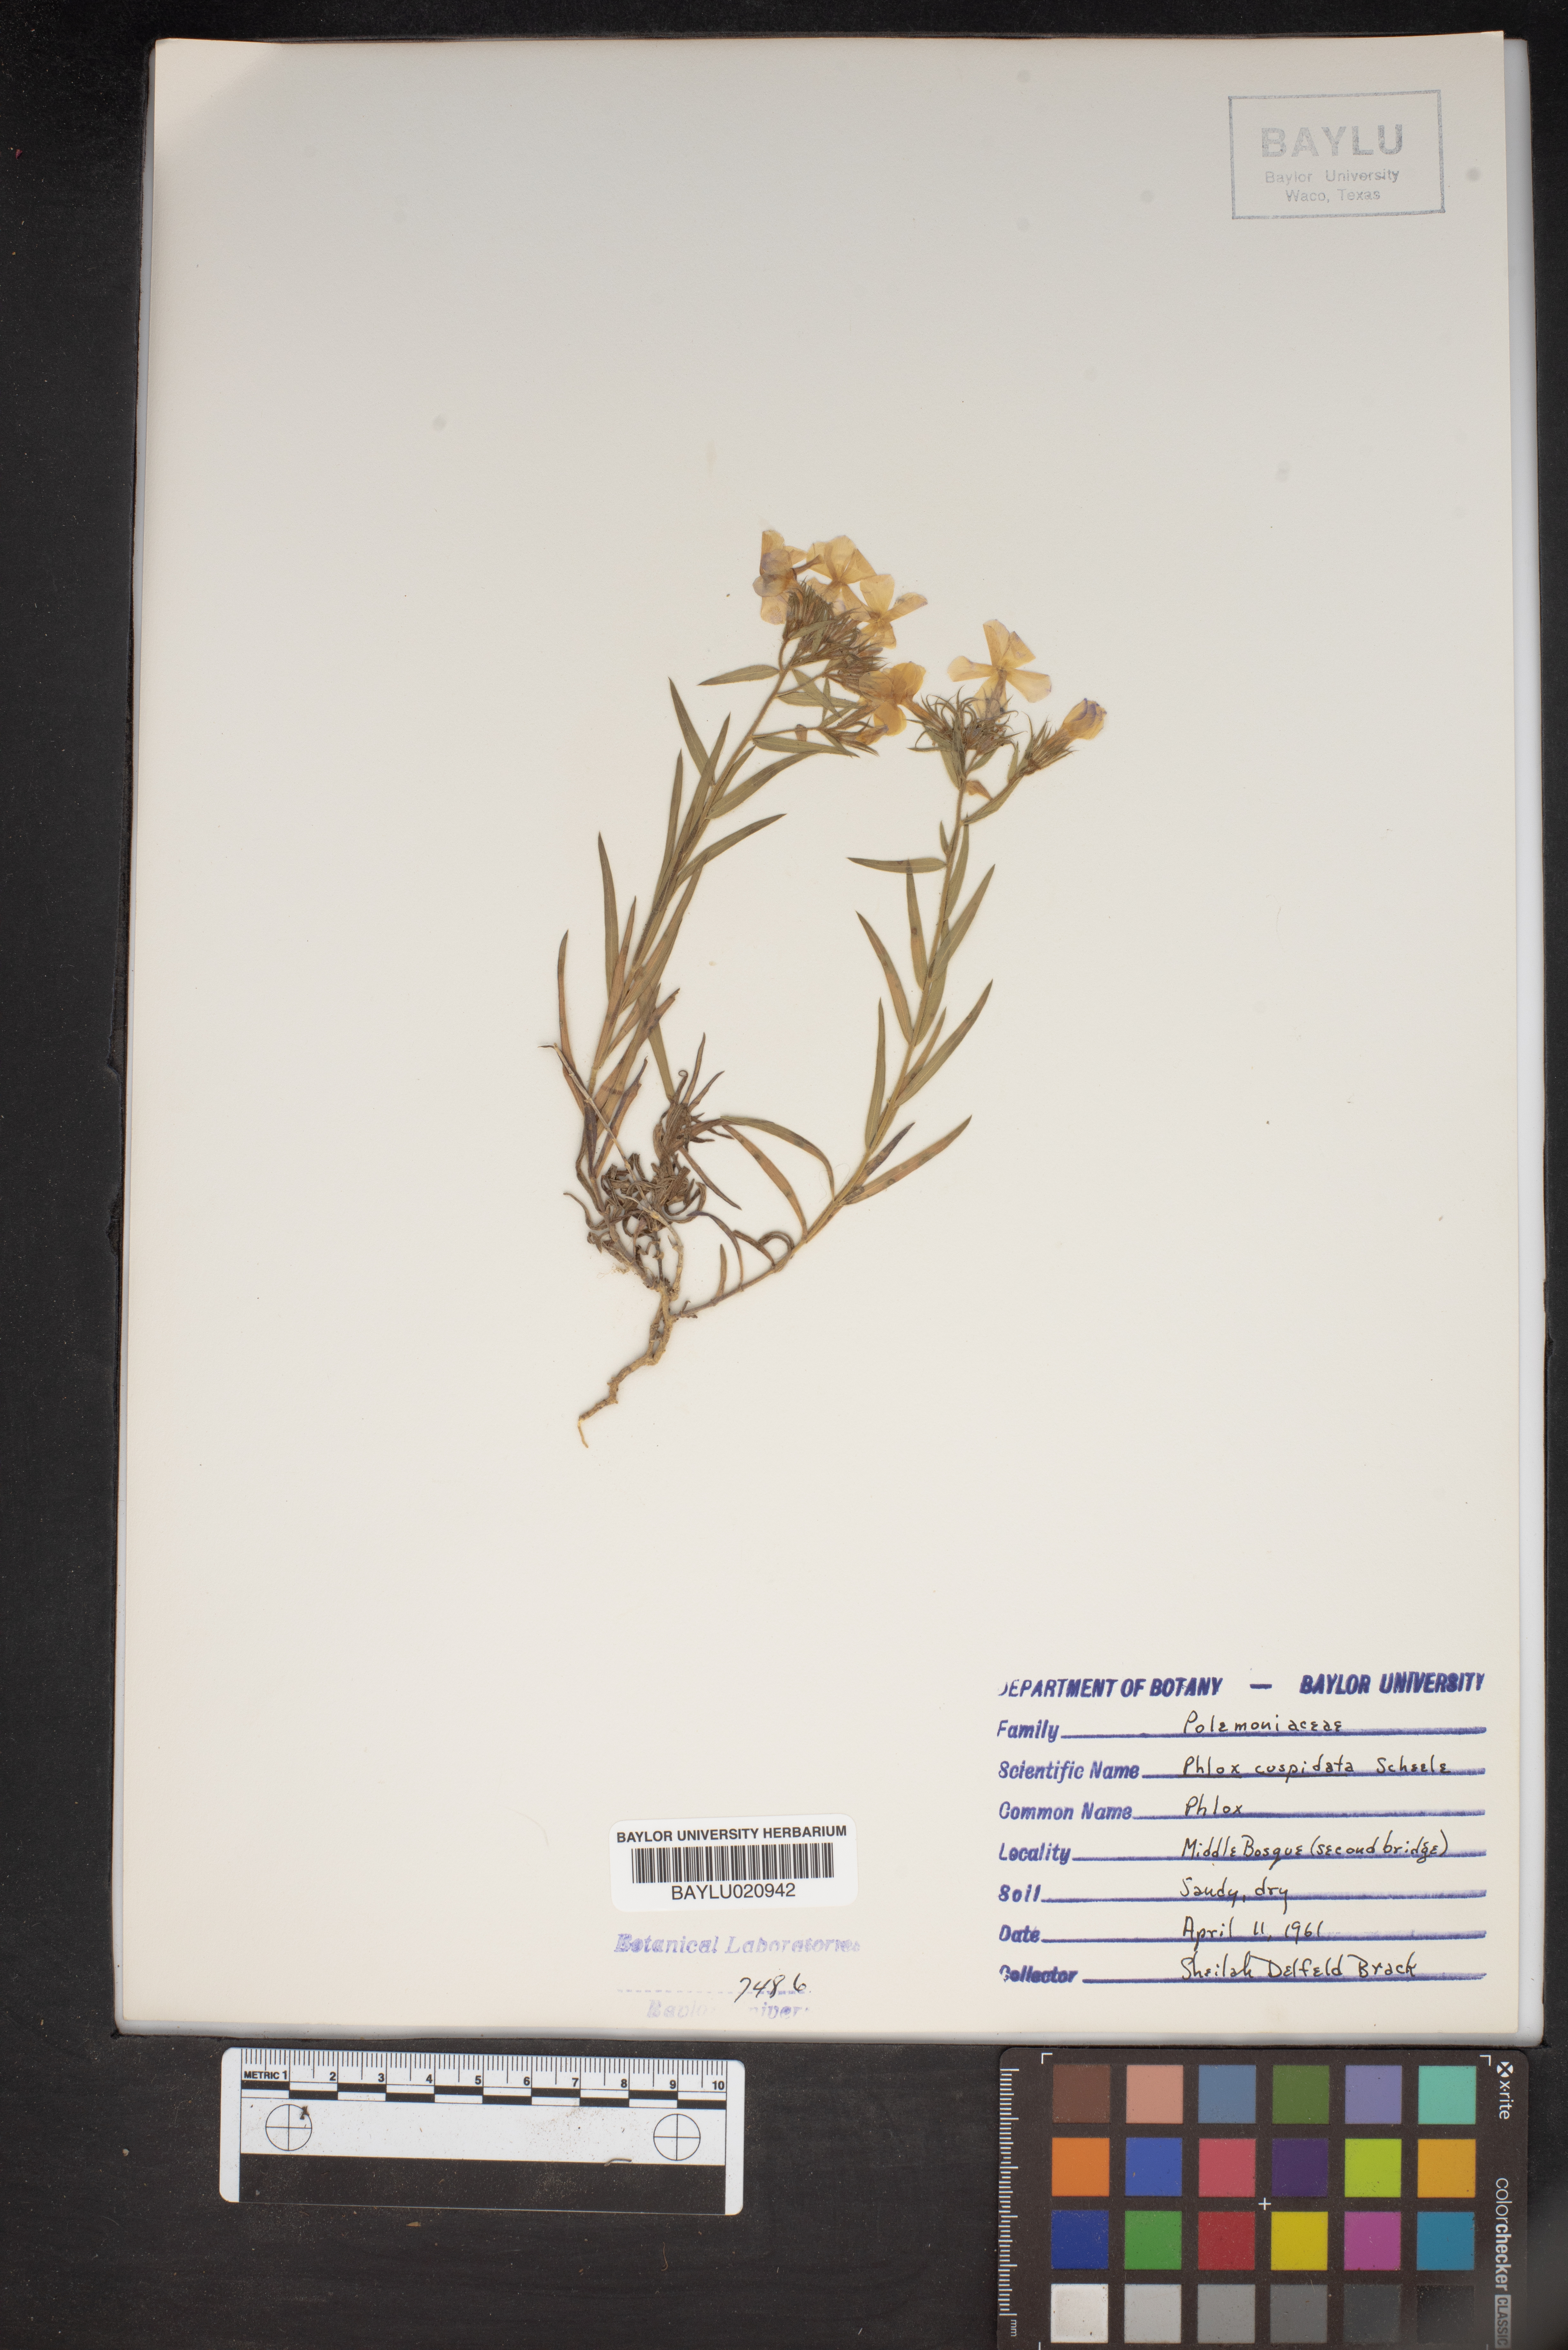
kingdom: Plantae
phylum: Tracheophyta
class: Magnoliopsida
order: Ericales
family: Polemoniaceae
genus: Phlox
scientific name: Phlox cuspidata
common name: Pointed phlox
